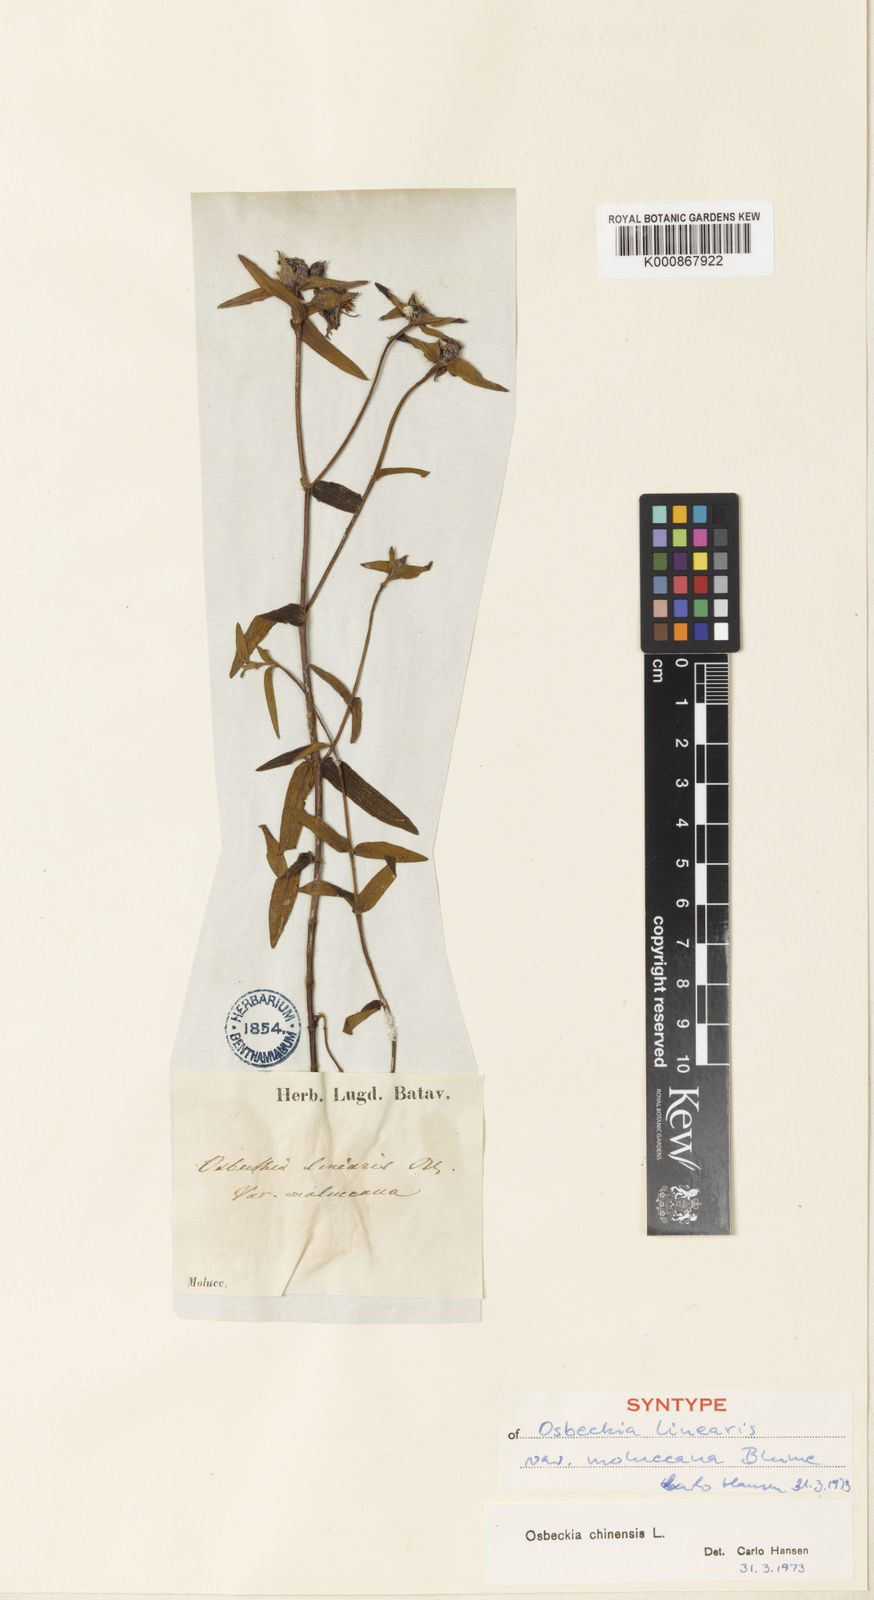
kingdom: Plantae
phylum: Tracheophyta
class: Magnoliopsida
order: Myrtales
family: Melastomataceae
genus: Osbeckia
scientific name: Osbeckia chinensis
